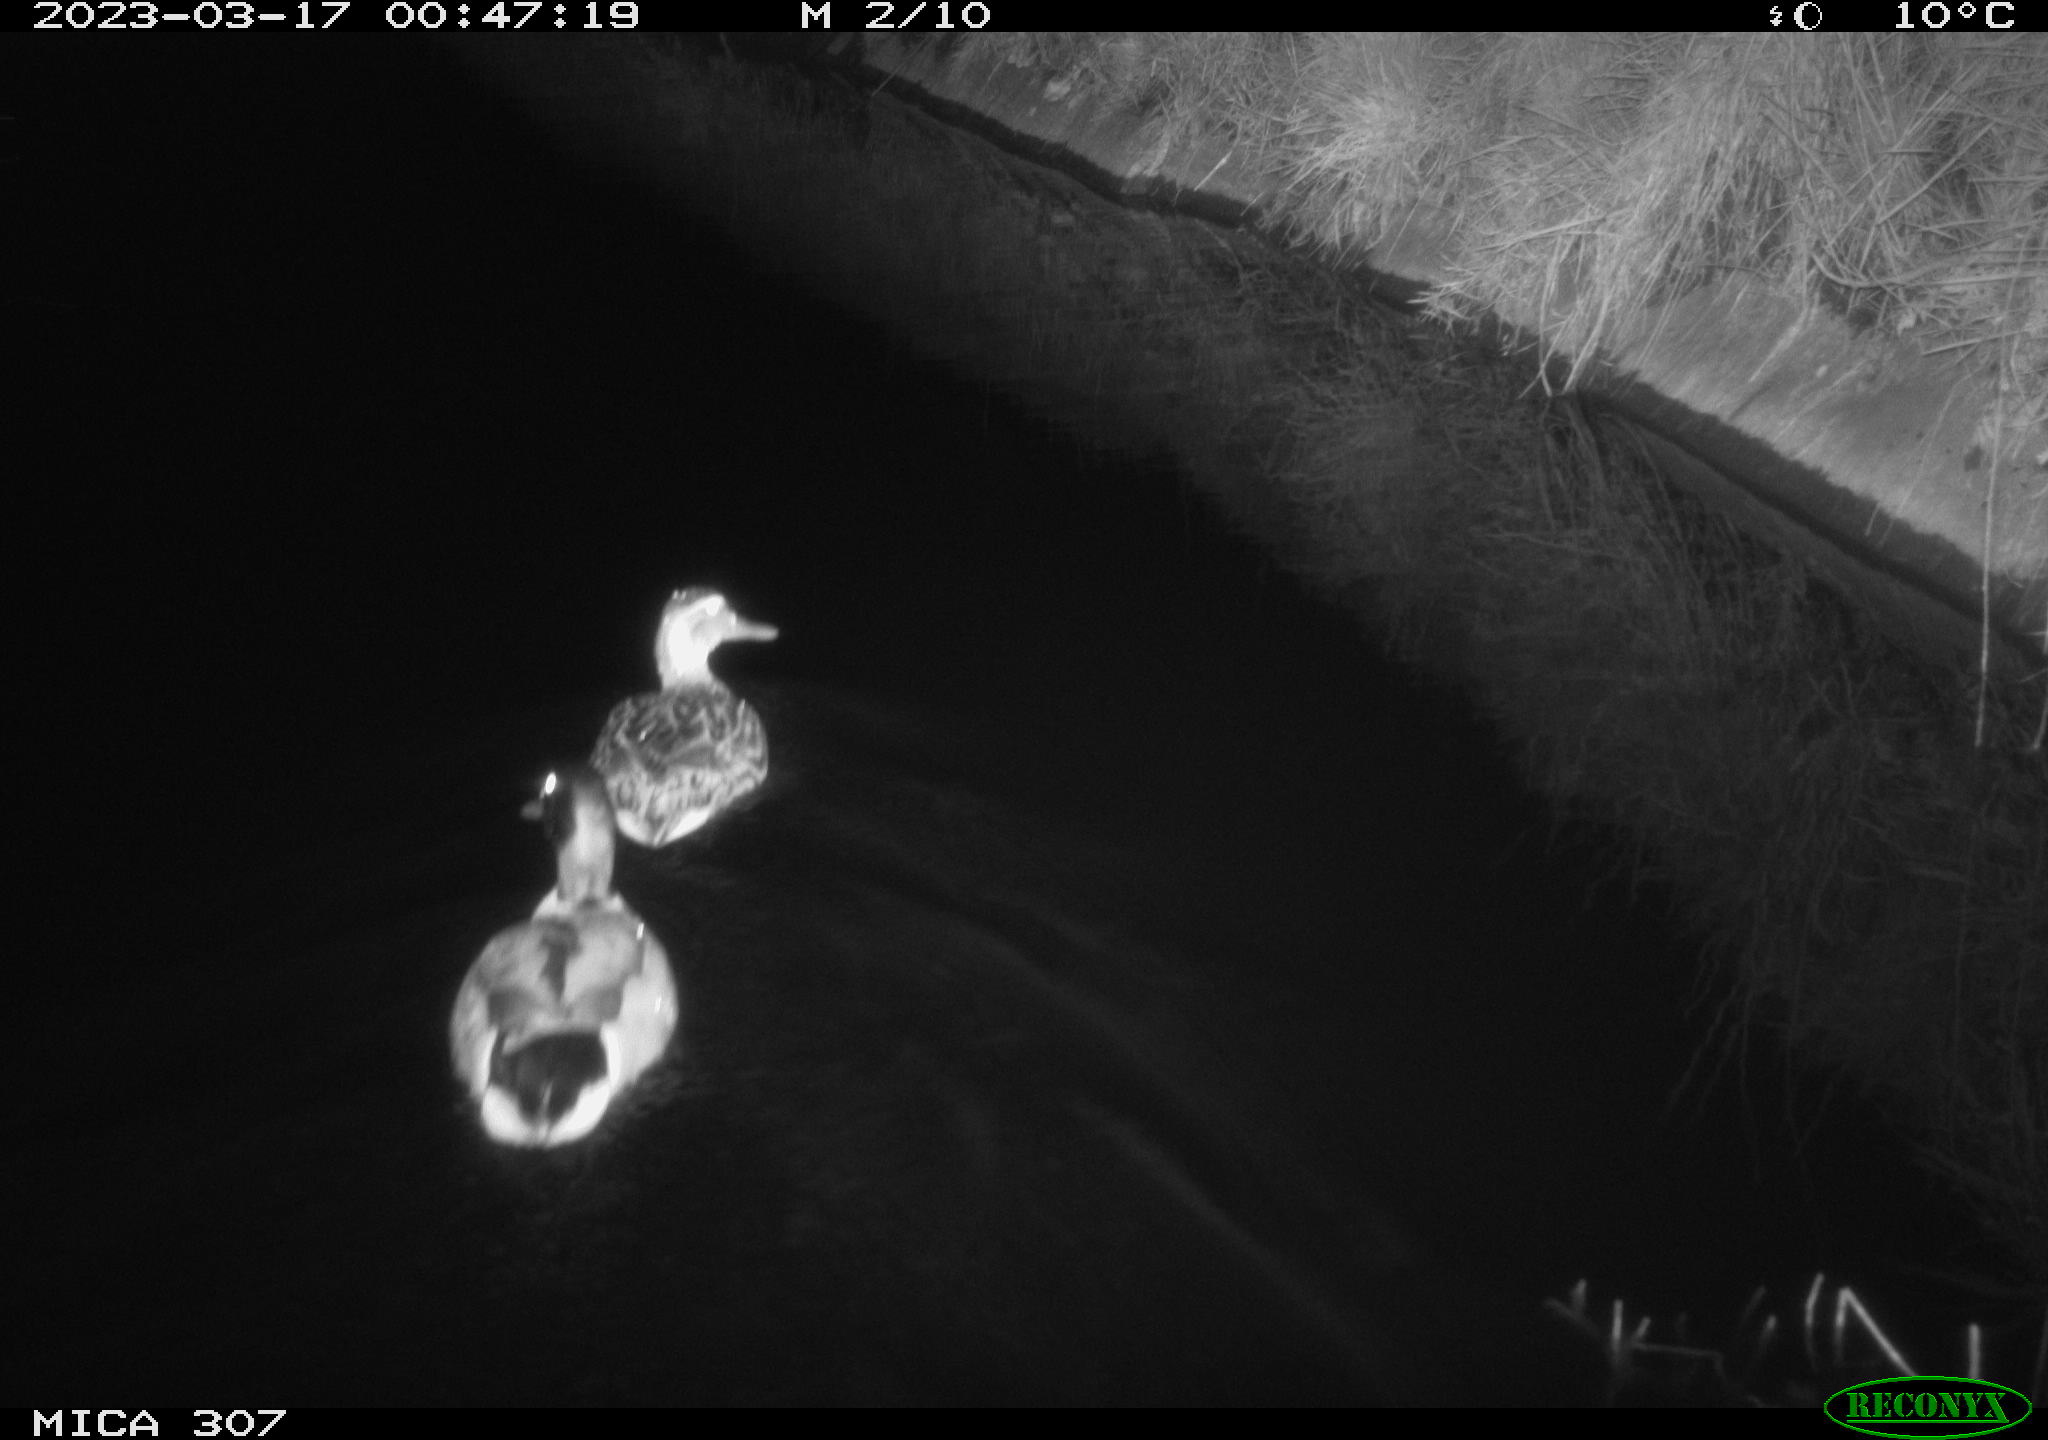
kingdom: Animalia
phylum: Chordata
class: Aves
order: Anseriformes
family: Anatidae
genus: Anas
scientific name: Anas
